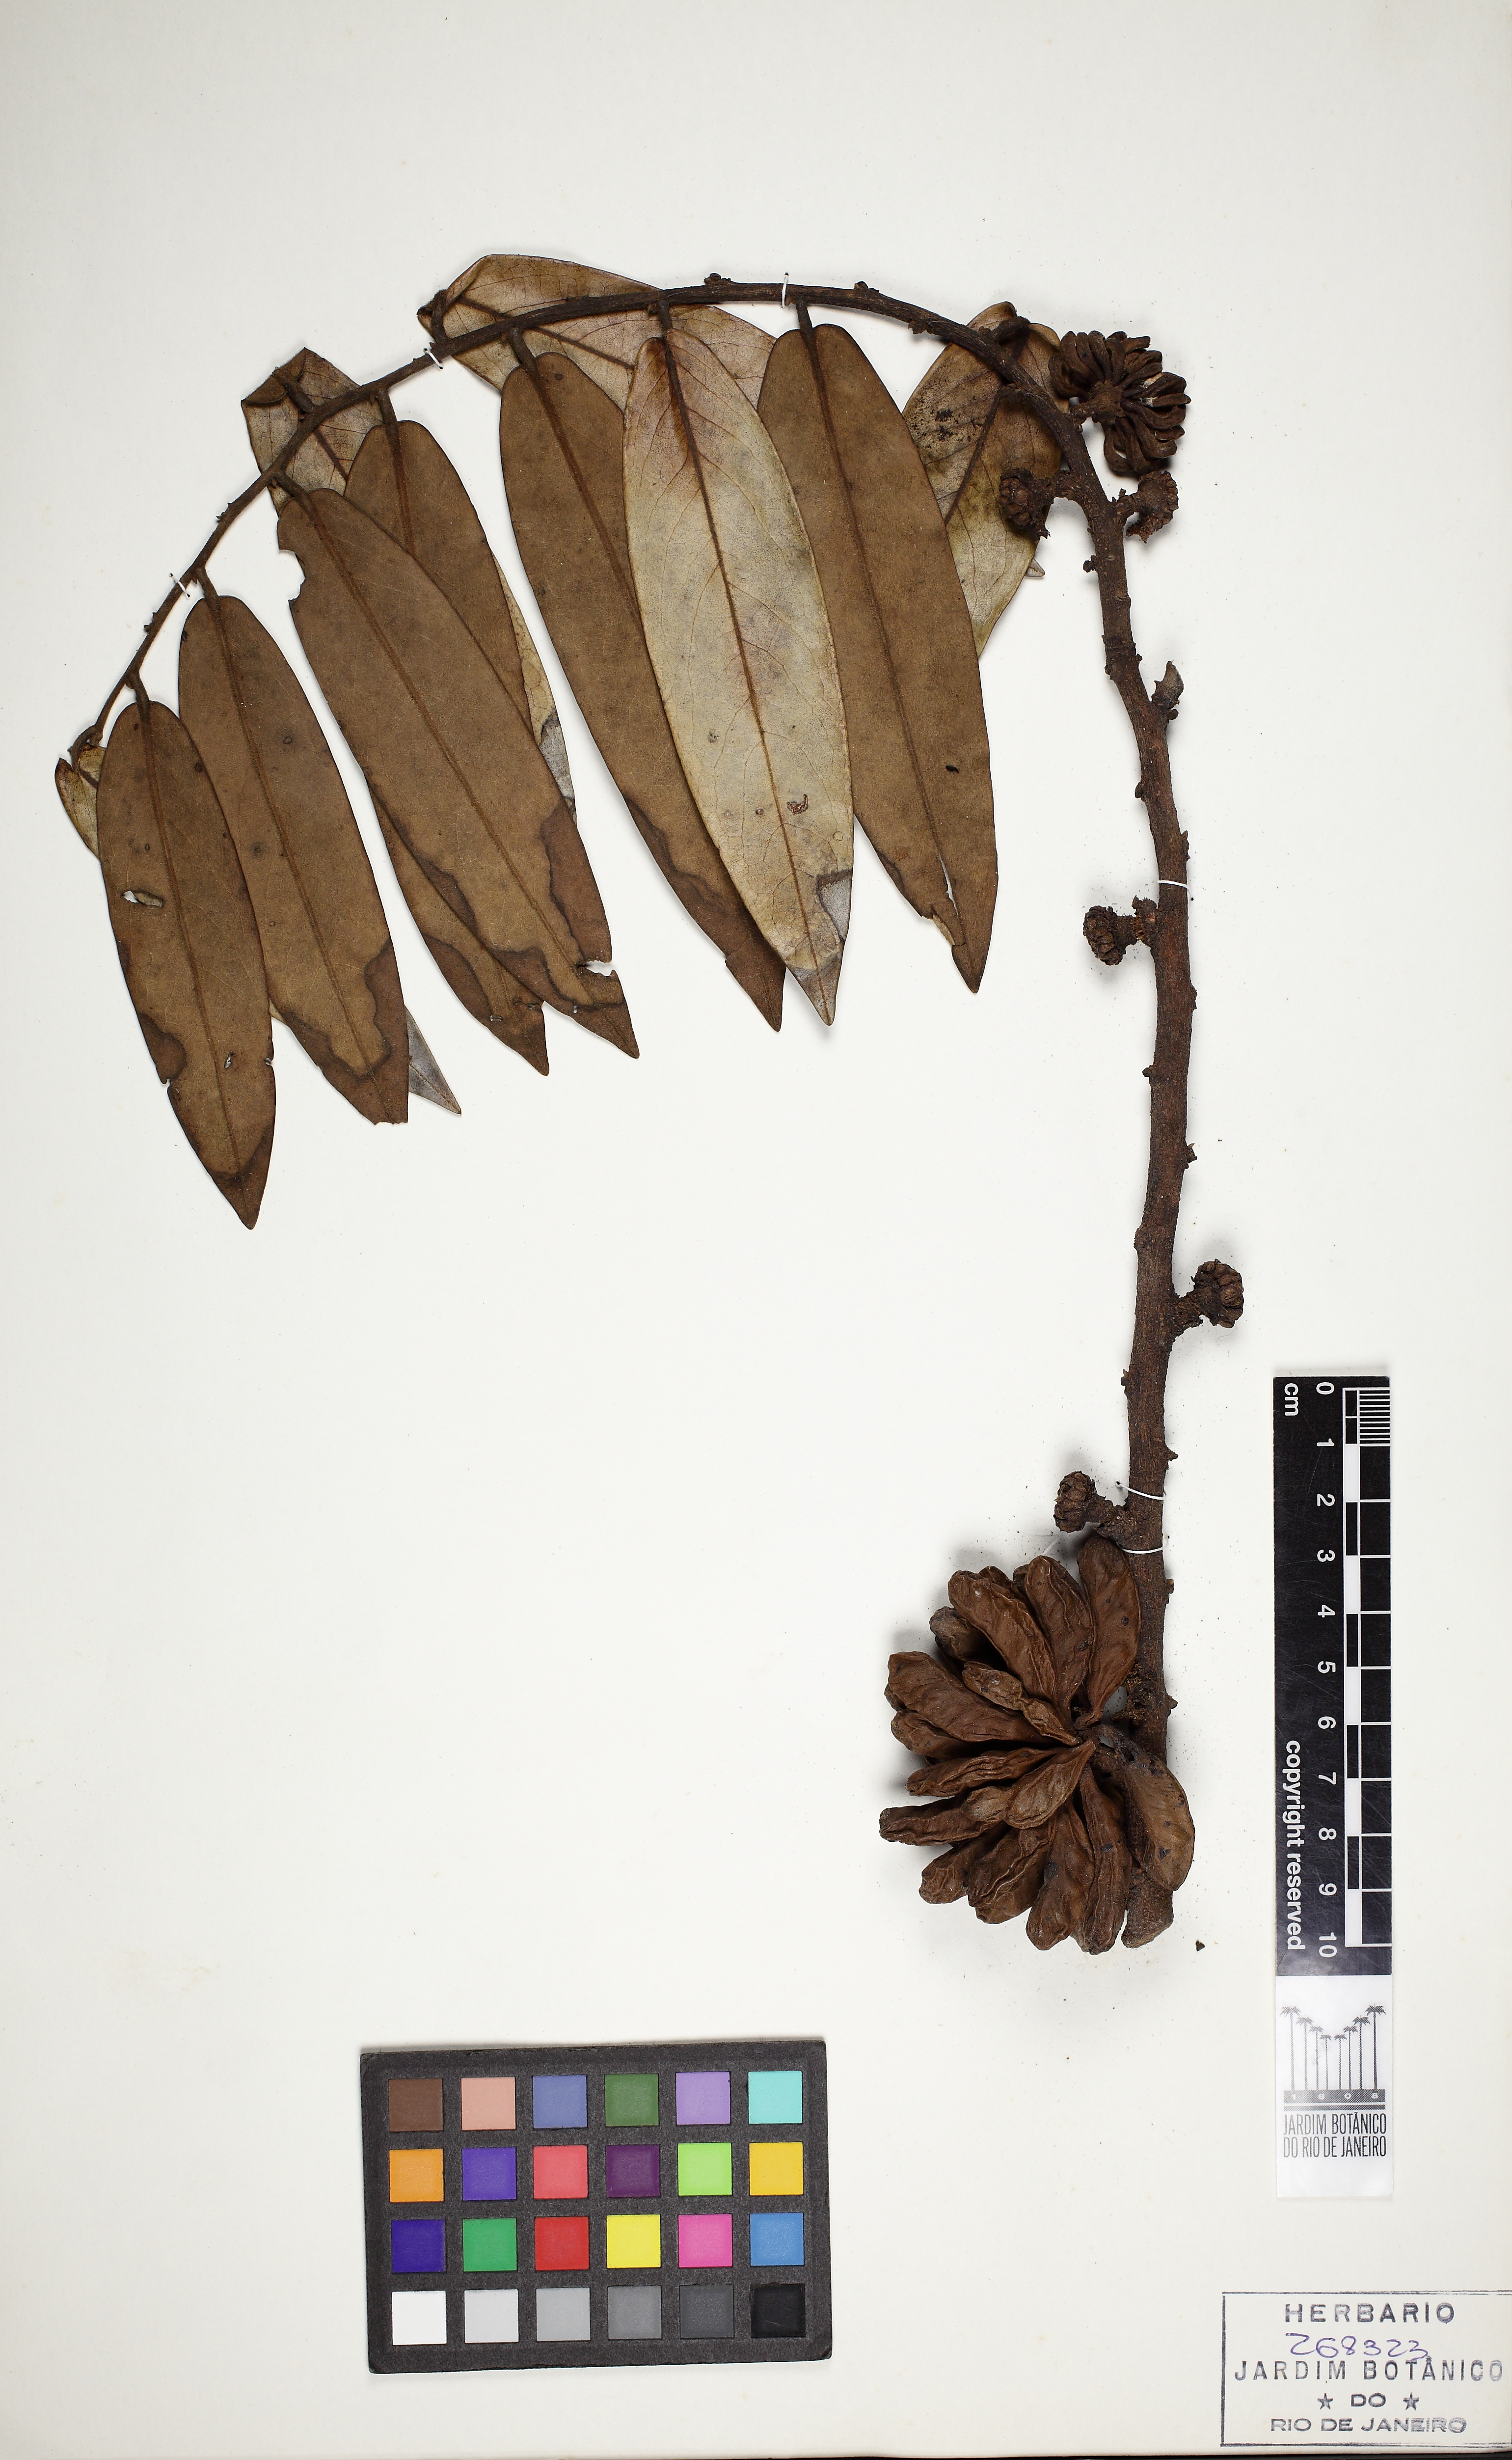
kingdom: Plantae
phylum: Tracheophyta
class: Magnoliopsida
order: Magnoliales
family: Annonaceae
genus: Xylopia
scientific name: Xylopia aromatica
